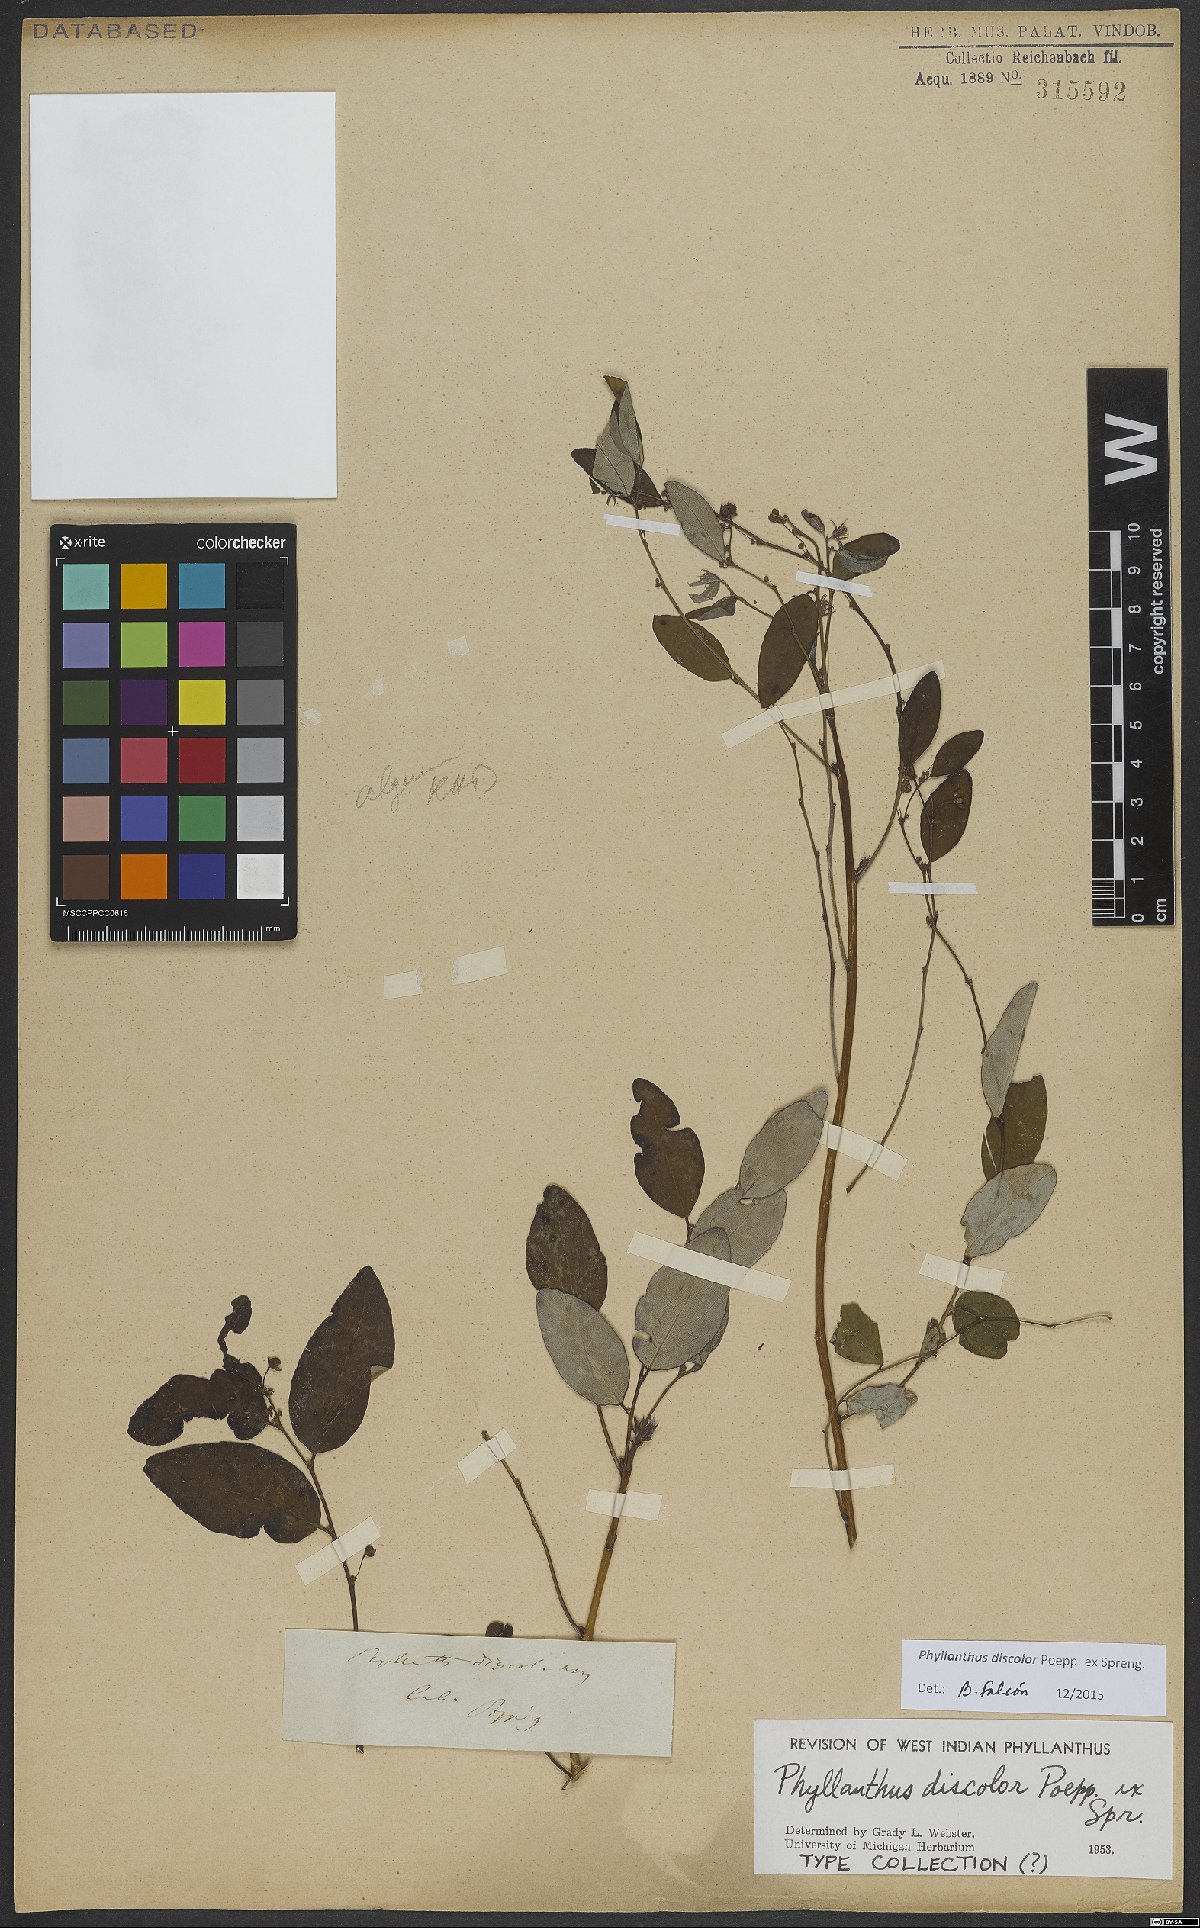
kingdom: Plantae
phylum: Tracheophyta
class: Magnoliopsida
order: Malpighiales
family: Phyllanthaceae
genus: Phyllanthus
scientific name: Phyllanthus discolor
